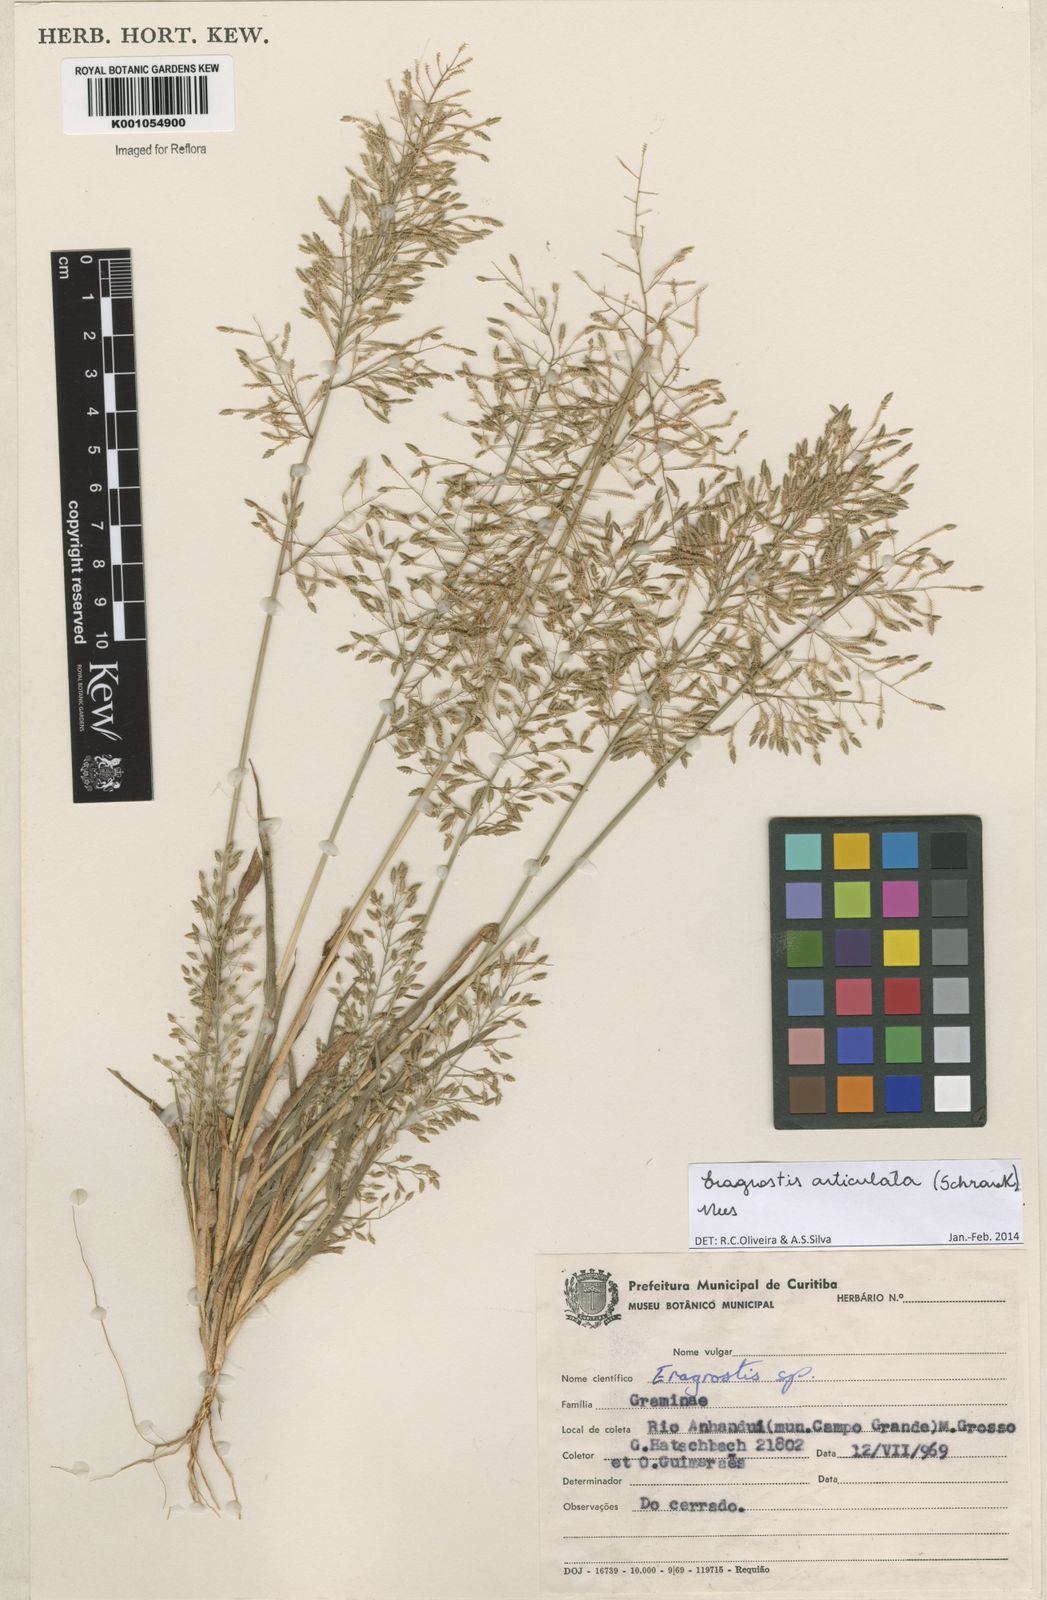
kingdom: Plantae
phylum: Tracheophyta
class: Liliopsida
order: Poales
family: Poaceae
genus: Eragrostis
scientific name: Eragrostis articulata
